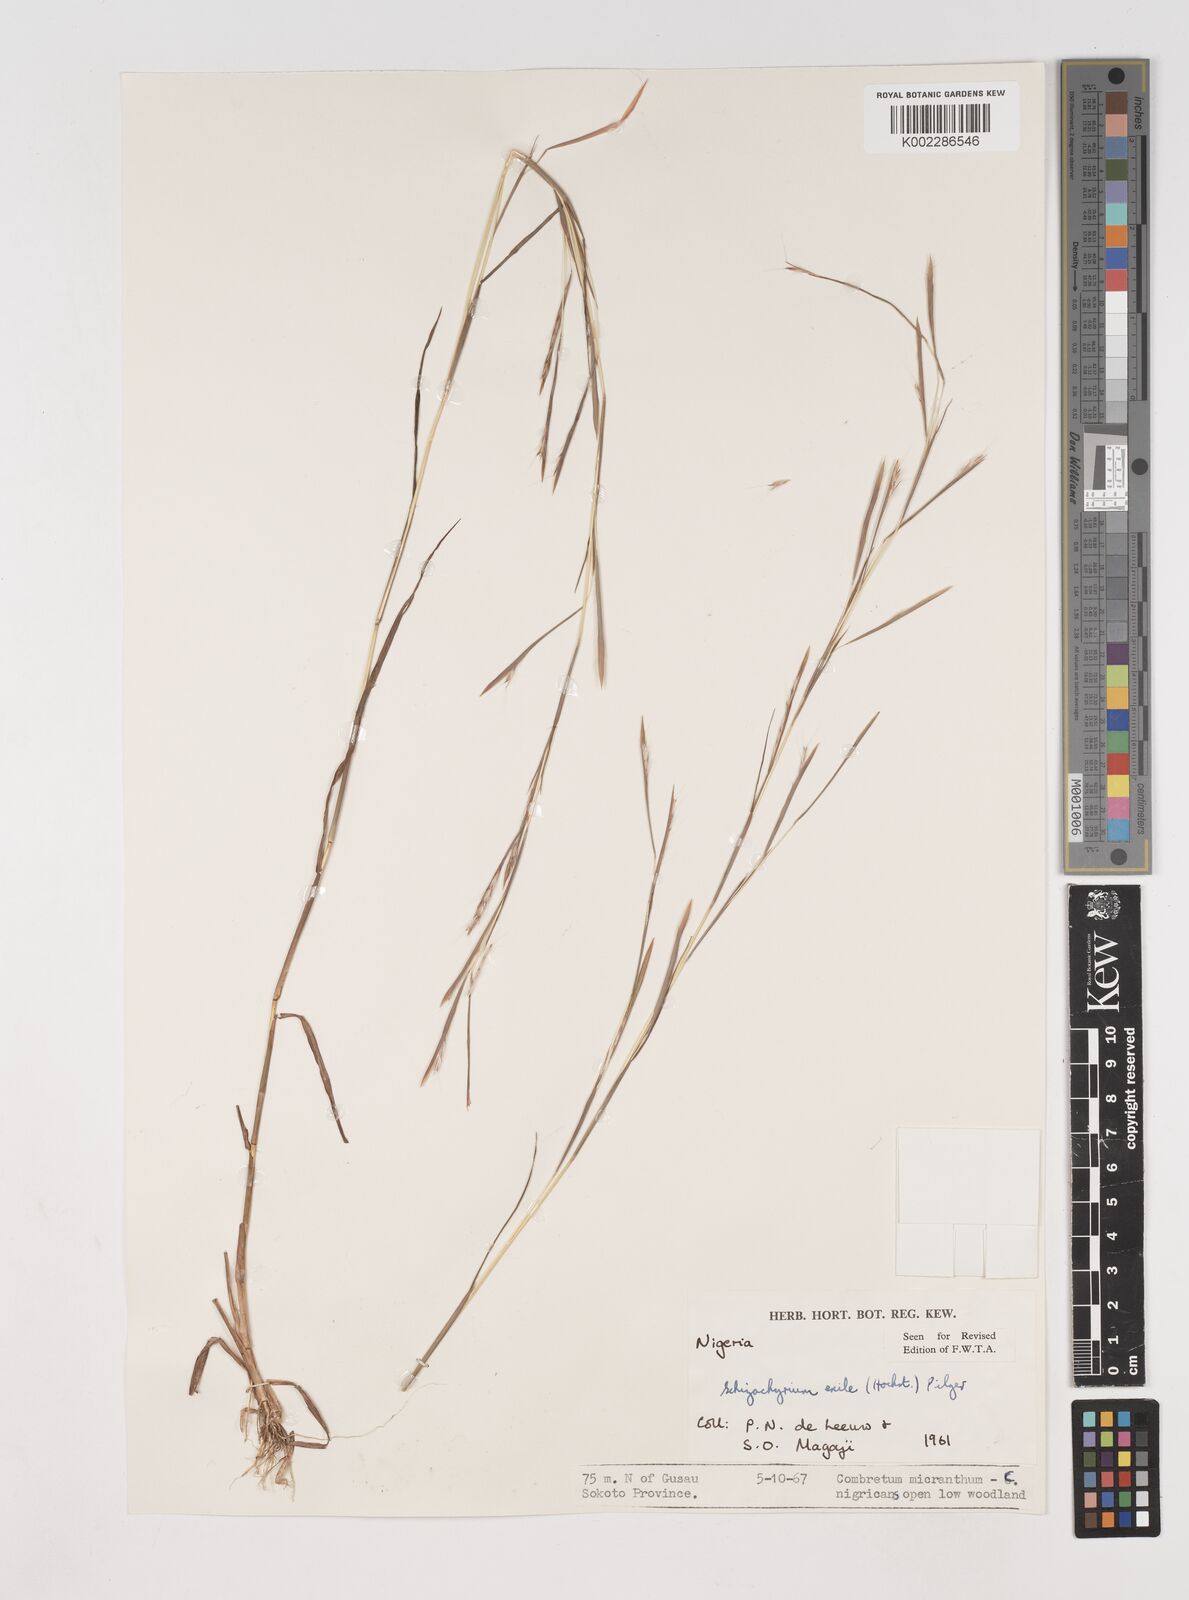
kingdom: Plantae
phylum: Tracheophyta
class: Liliopsida
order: Poales
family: Poaceae
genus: Schizachyrium
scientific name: Schizachyrium exile
